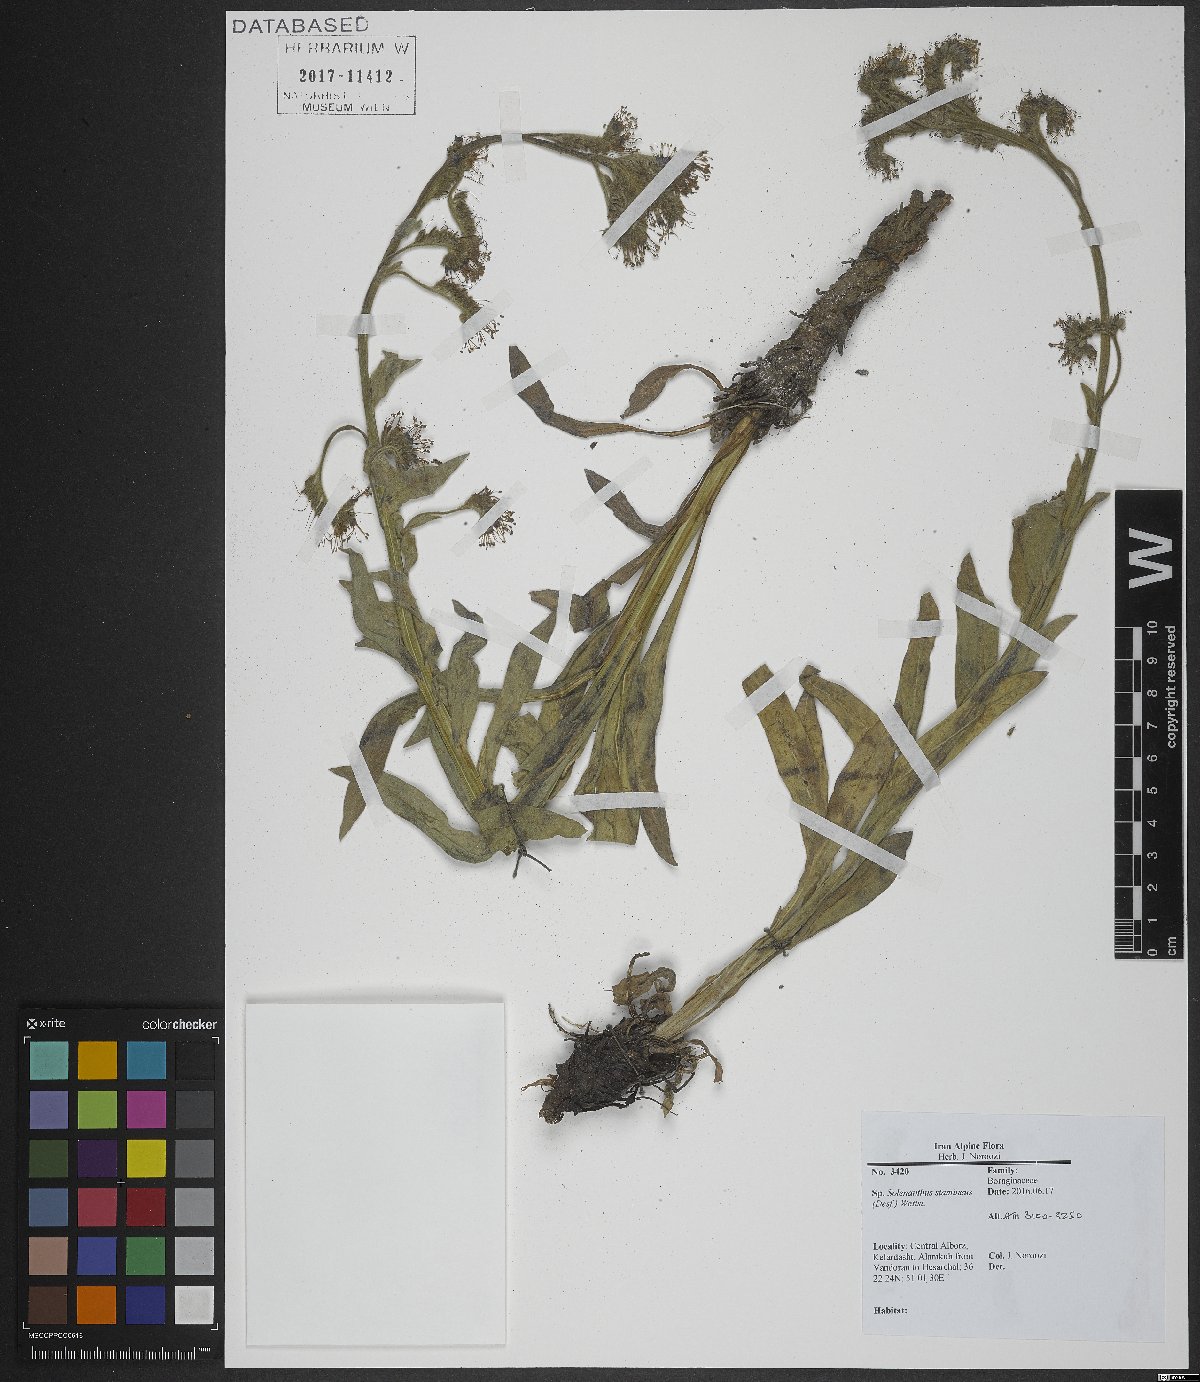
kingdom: Plantae
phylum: Tracheophyta
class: Magnoliopsida
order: Boraginales
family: Boraginaceae
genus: Solenanthus
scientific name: Solenanthus stamineus
